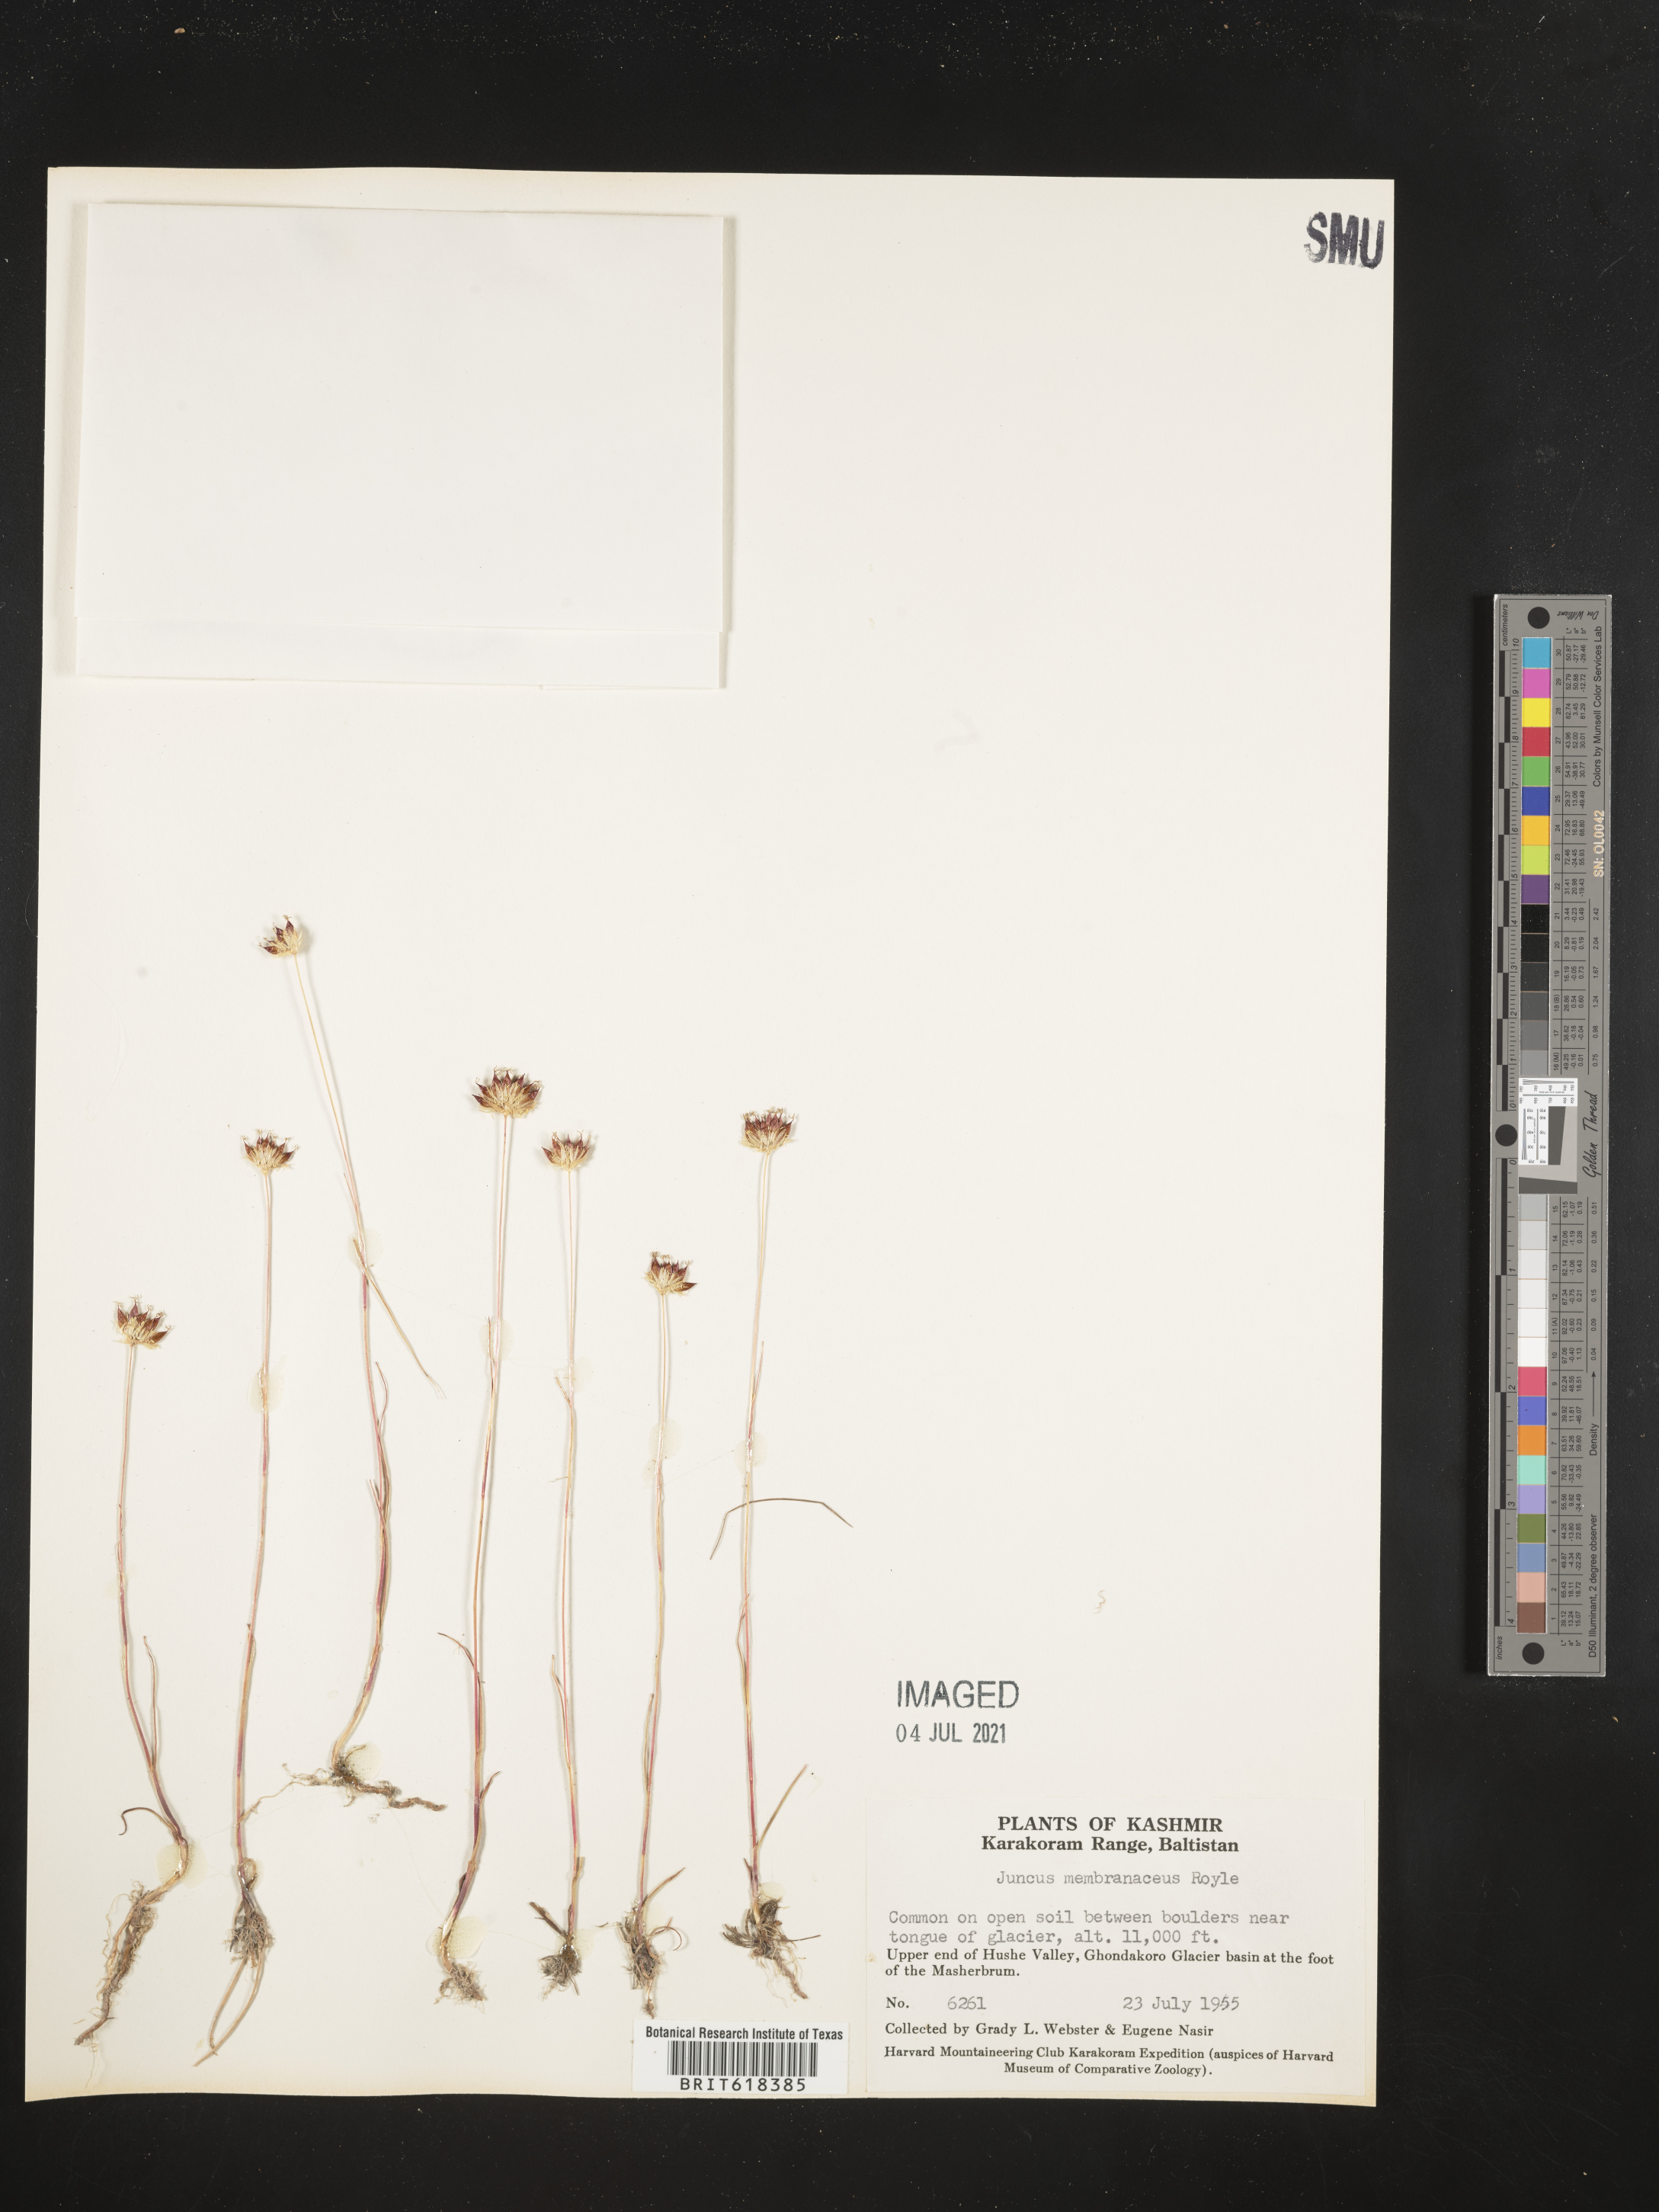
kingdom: Plantae
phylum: Tracheophyta
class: Liliopsida
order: Poales
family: Juncaceae
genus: Juncus
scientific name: Juncus membranaceus
